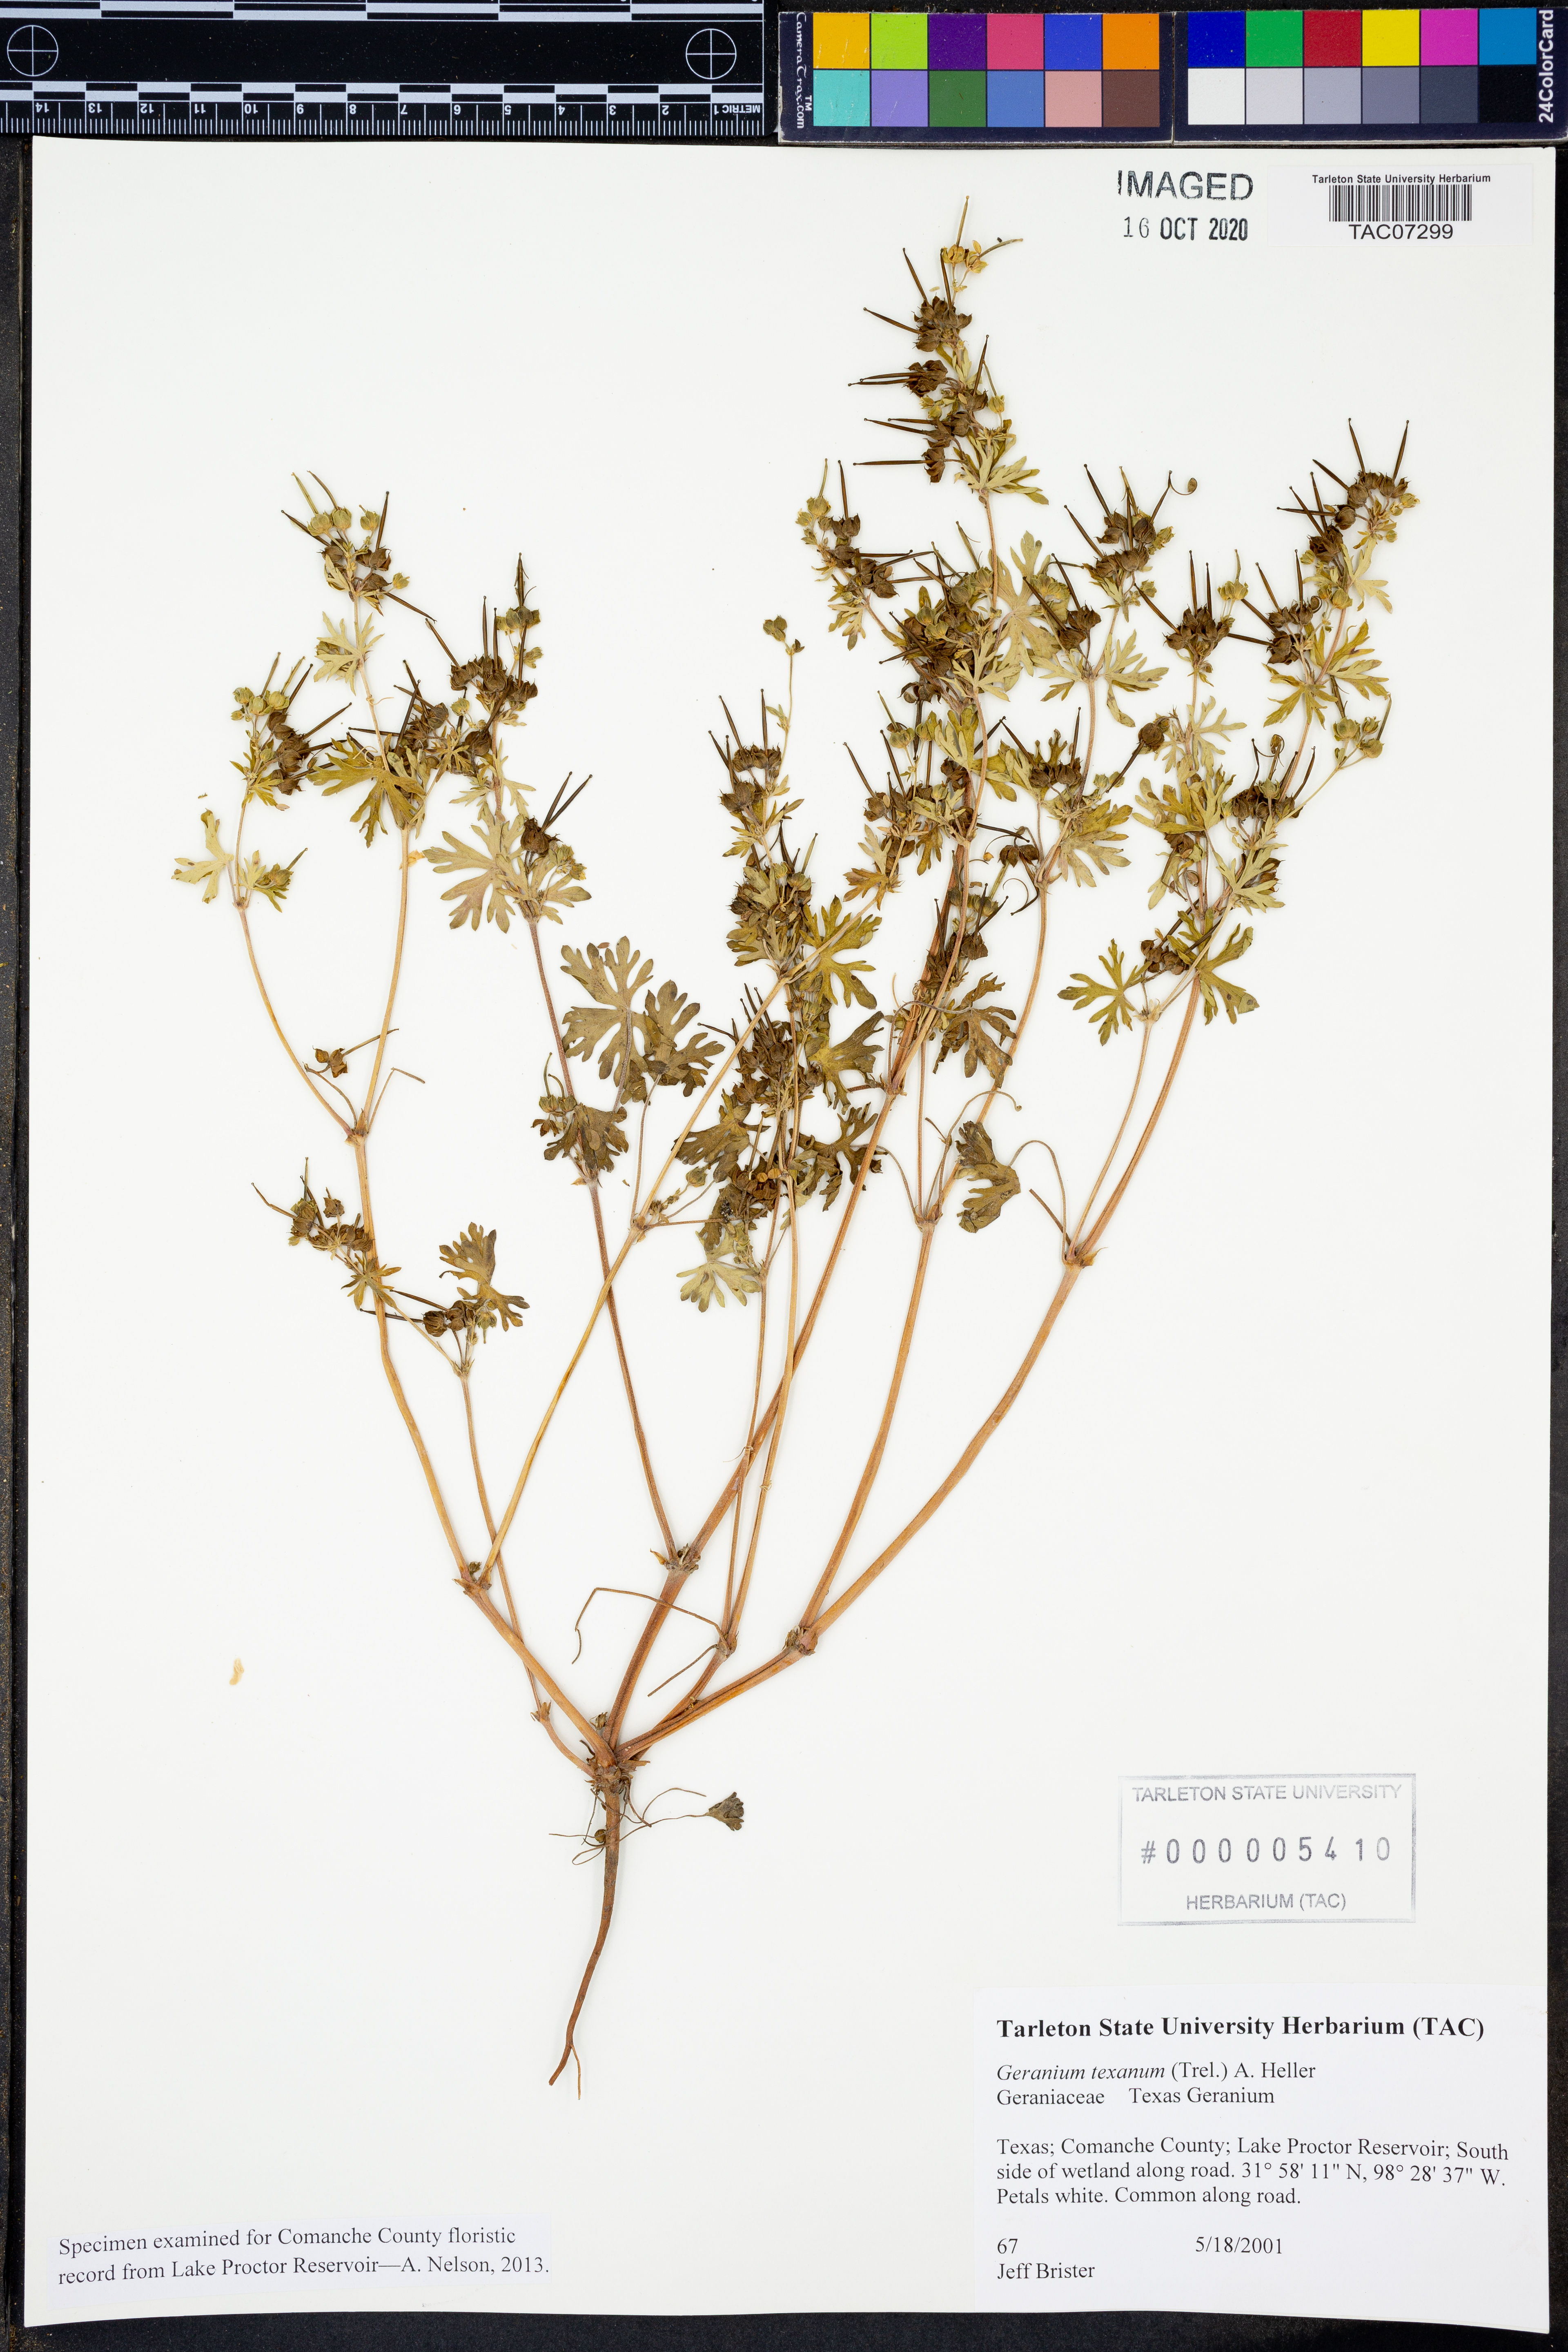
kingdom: Plantae
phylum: Tracheophyta
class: Magnoliopsida
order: Geraniales
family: Geraniaceae
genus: Geranium
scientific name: Geranium texanum
